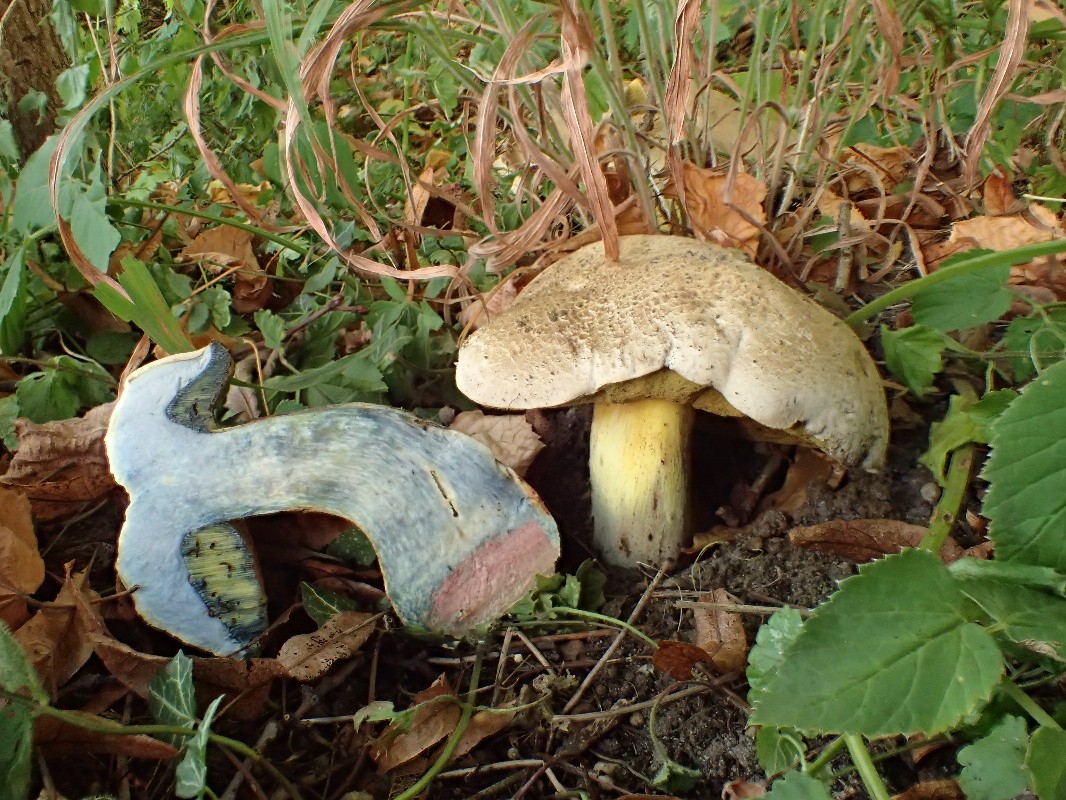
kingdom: Fungi
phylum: Basidiomycota
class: Agaricomycetes
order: Boletales
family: Boletaceae
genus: Caloboletus
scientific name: Caloboletus radicans
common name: rod-rørhat
